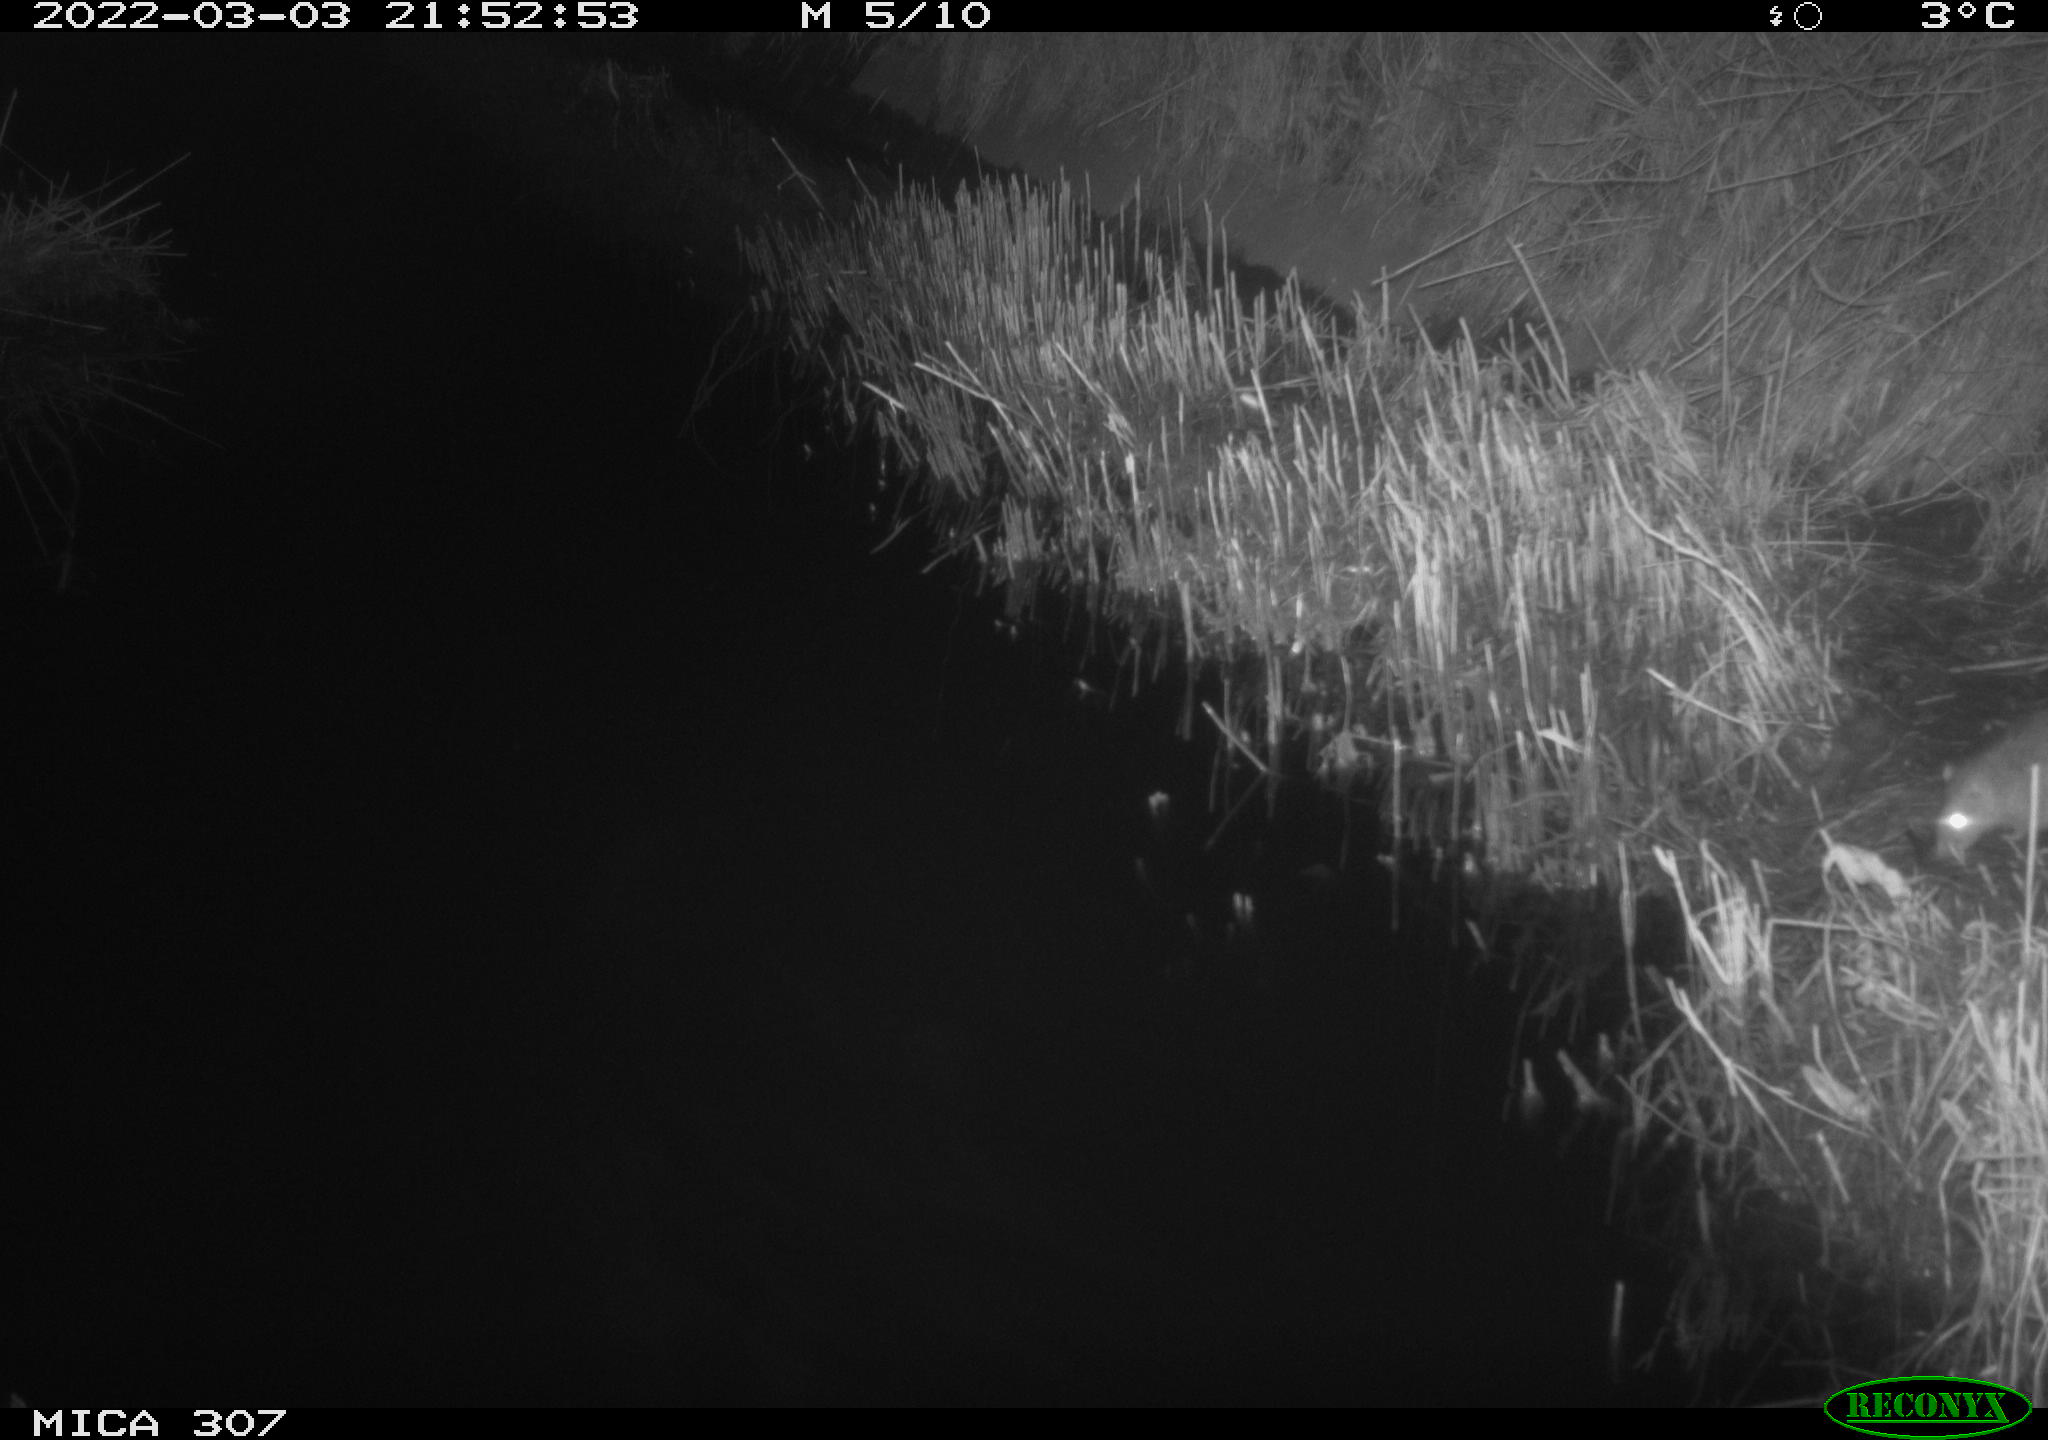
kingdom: Animalia
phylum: Chordata
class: Mammalia
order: Rodentia
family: Muridae
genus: Rattus
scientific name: Rattus norvegicus
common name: Brown rat
